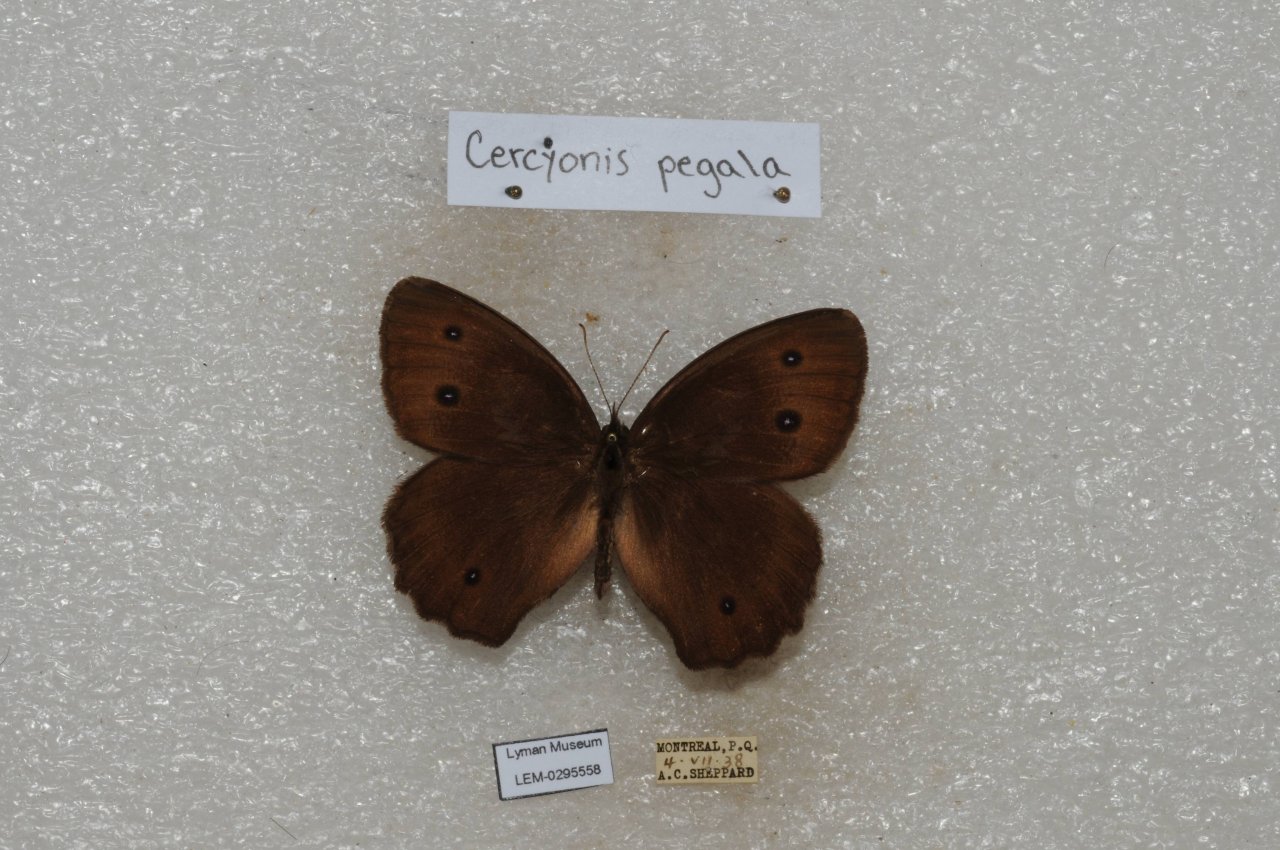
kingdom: Animalia
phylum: Arthropoda
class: Insecta
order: Lepidoptera
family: Nymphalidae
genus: Cercyonis
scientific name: Cercyonis pegala
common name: Common Wood-Nymph
